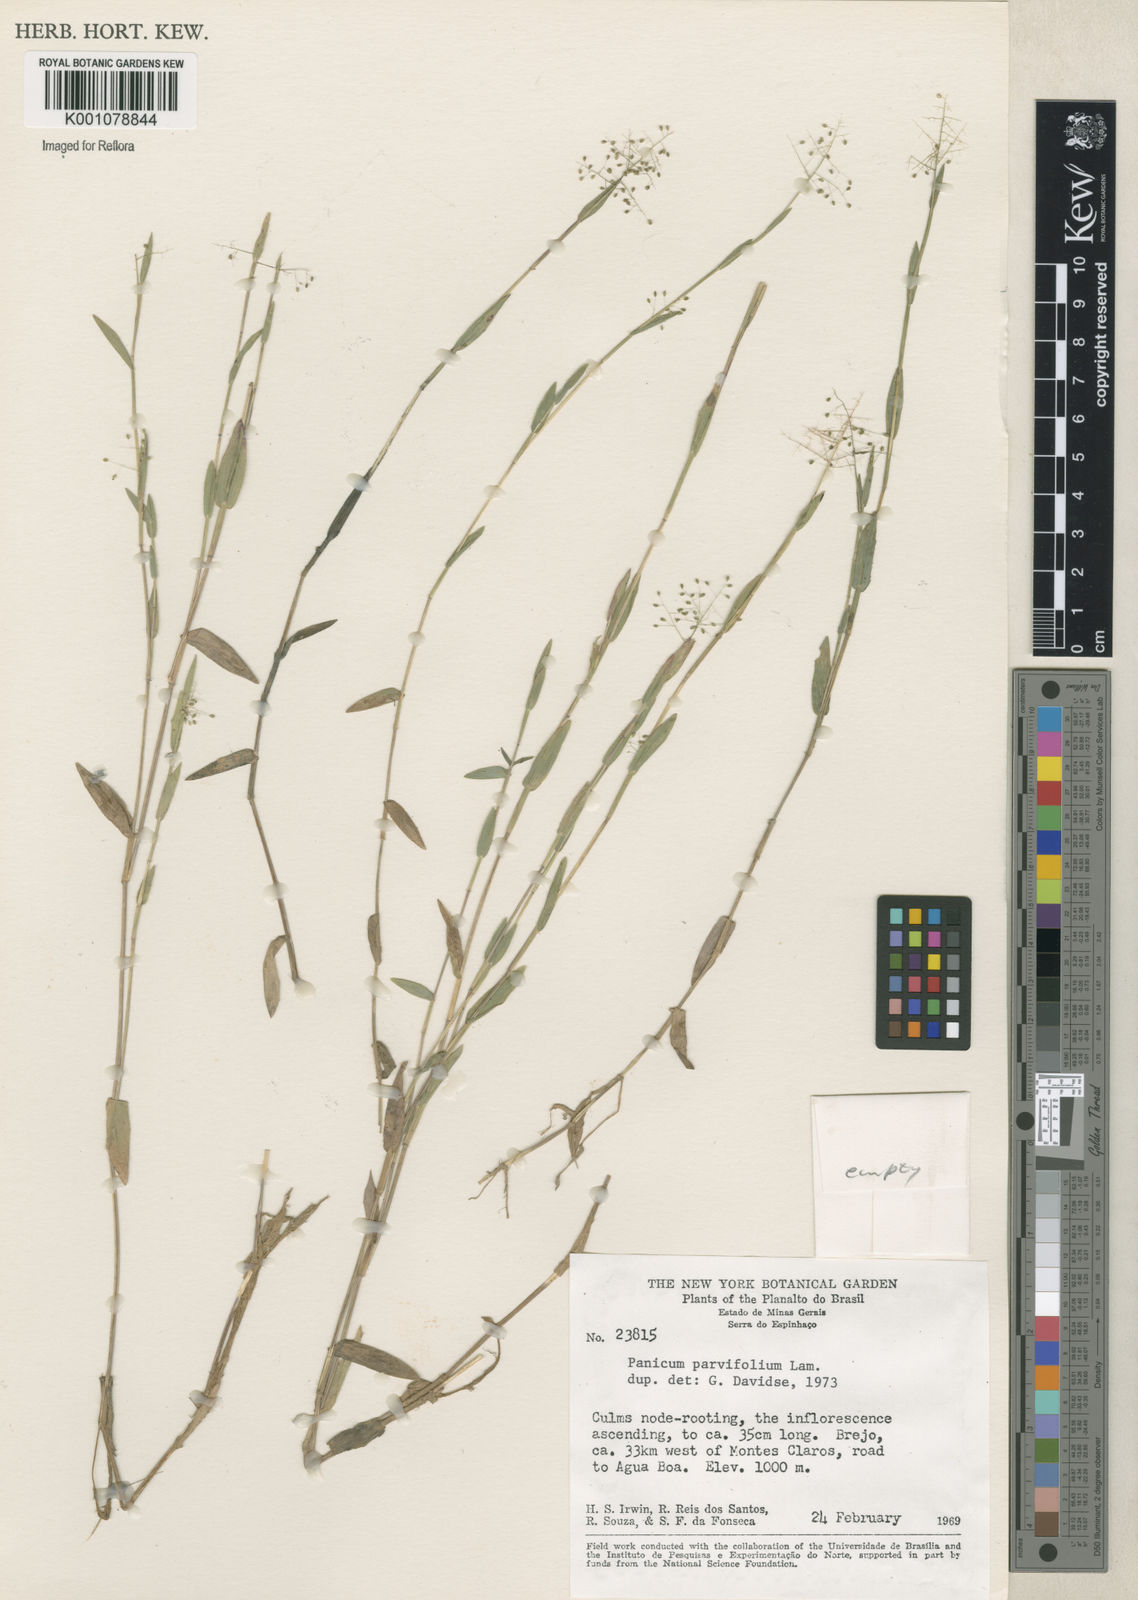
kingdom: Plantae
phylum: Tracheophyta
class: Liliopsida
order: Poales
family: Poaceae
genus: Trichanthecium
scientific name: Trichanthecium parvifolium
